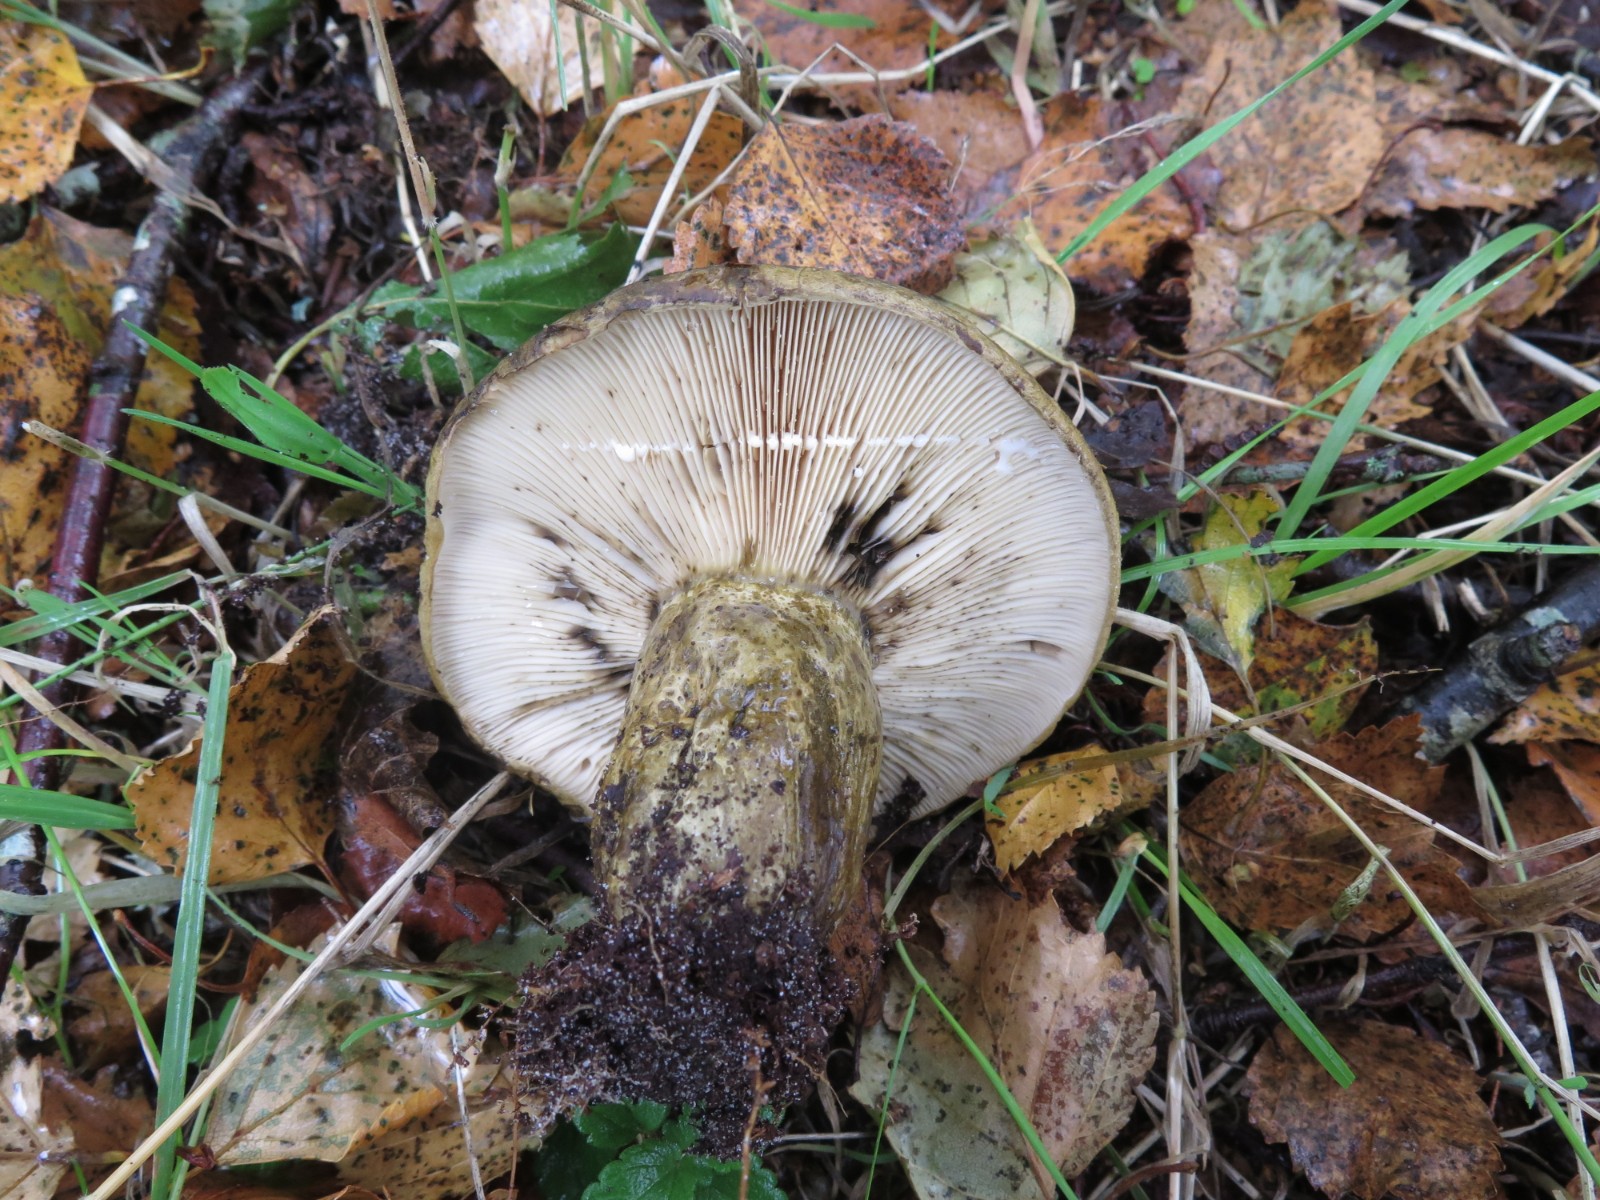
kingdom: Fungi
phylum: Basidiomycota
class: Agaricomycetes
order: Russulales
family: Russulaceae
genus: Lactarius
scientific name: Lactarius necator
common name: manddraber-mælkehat
